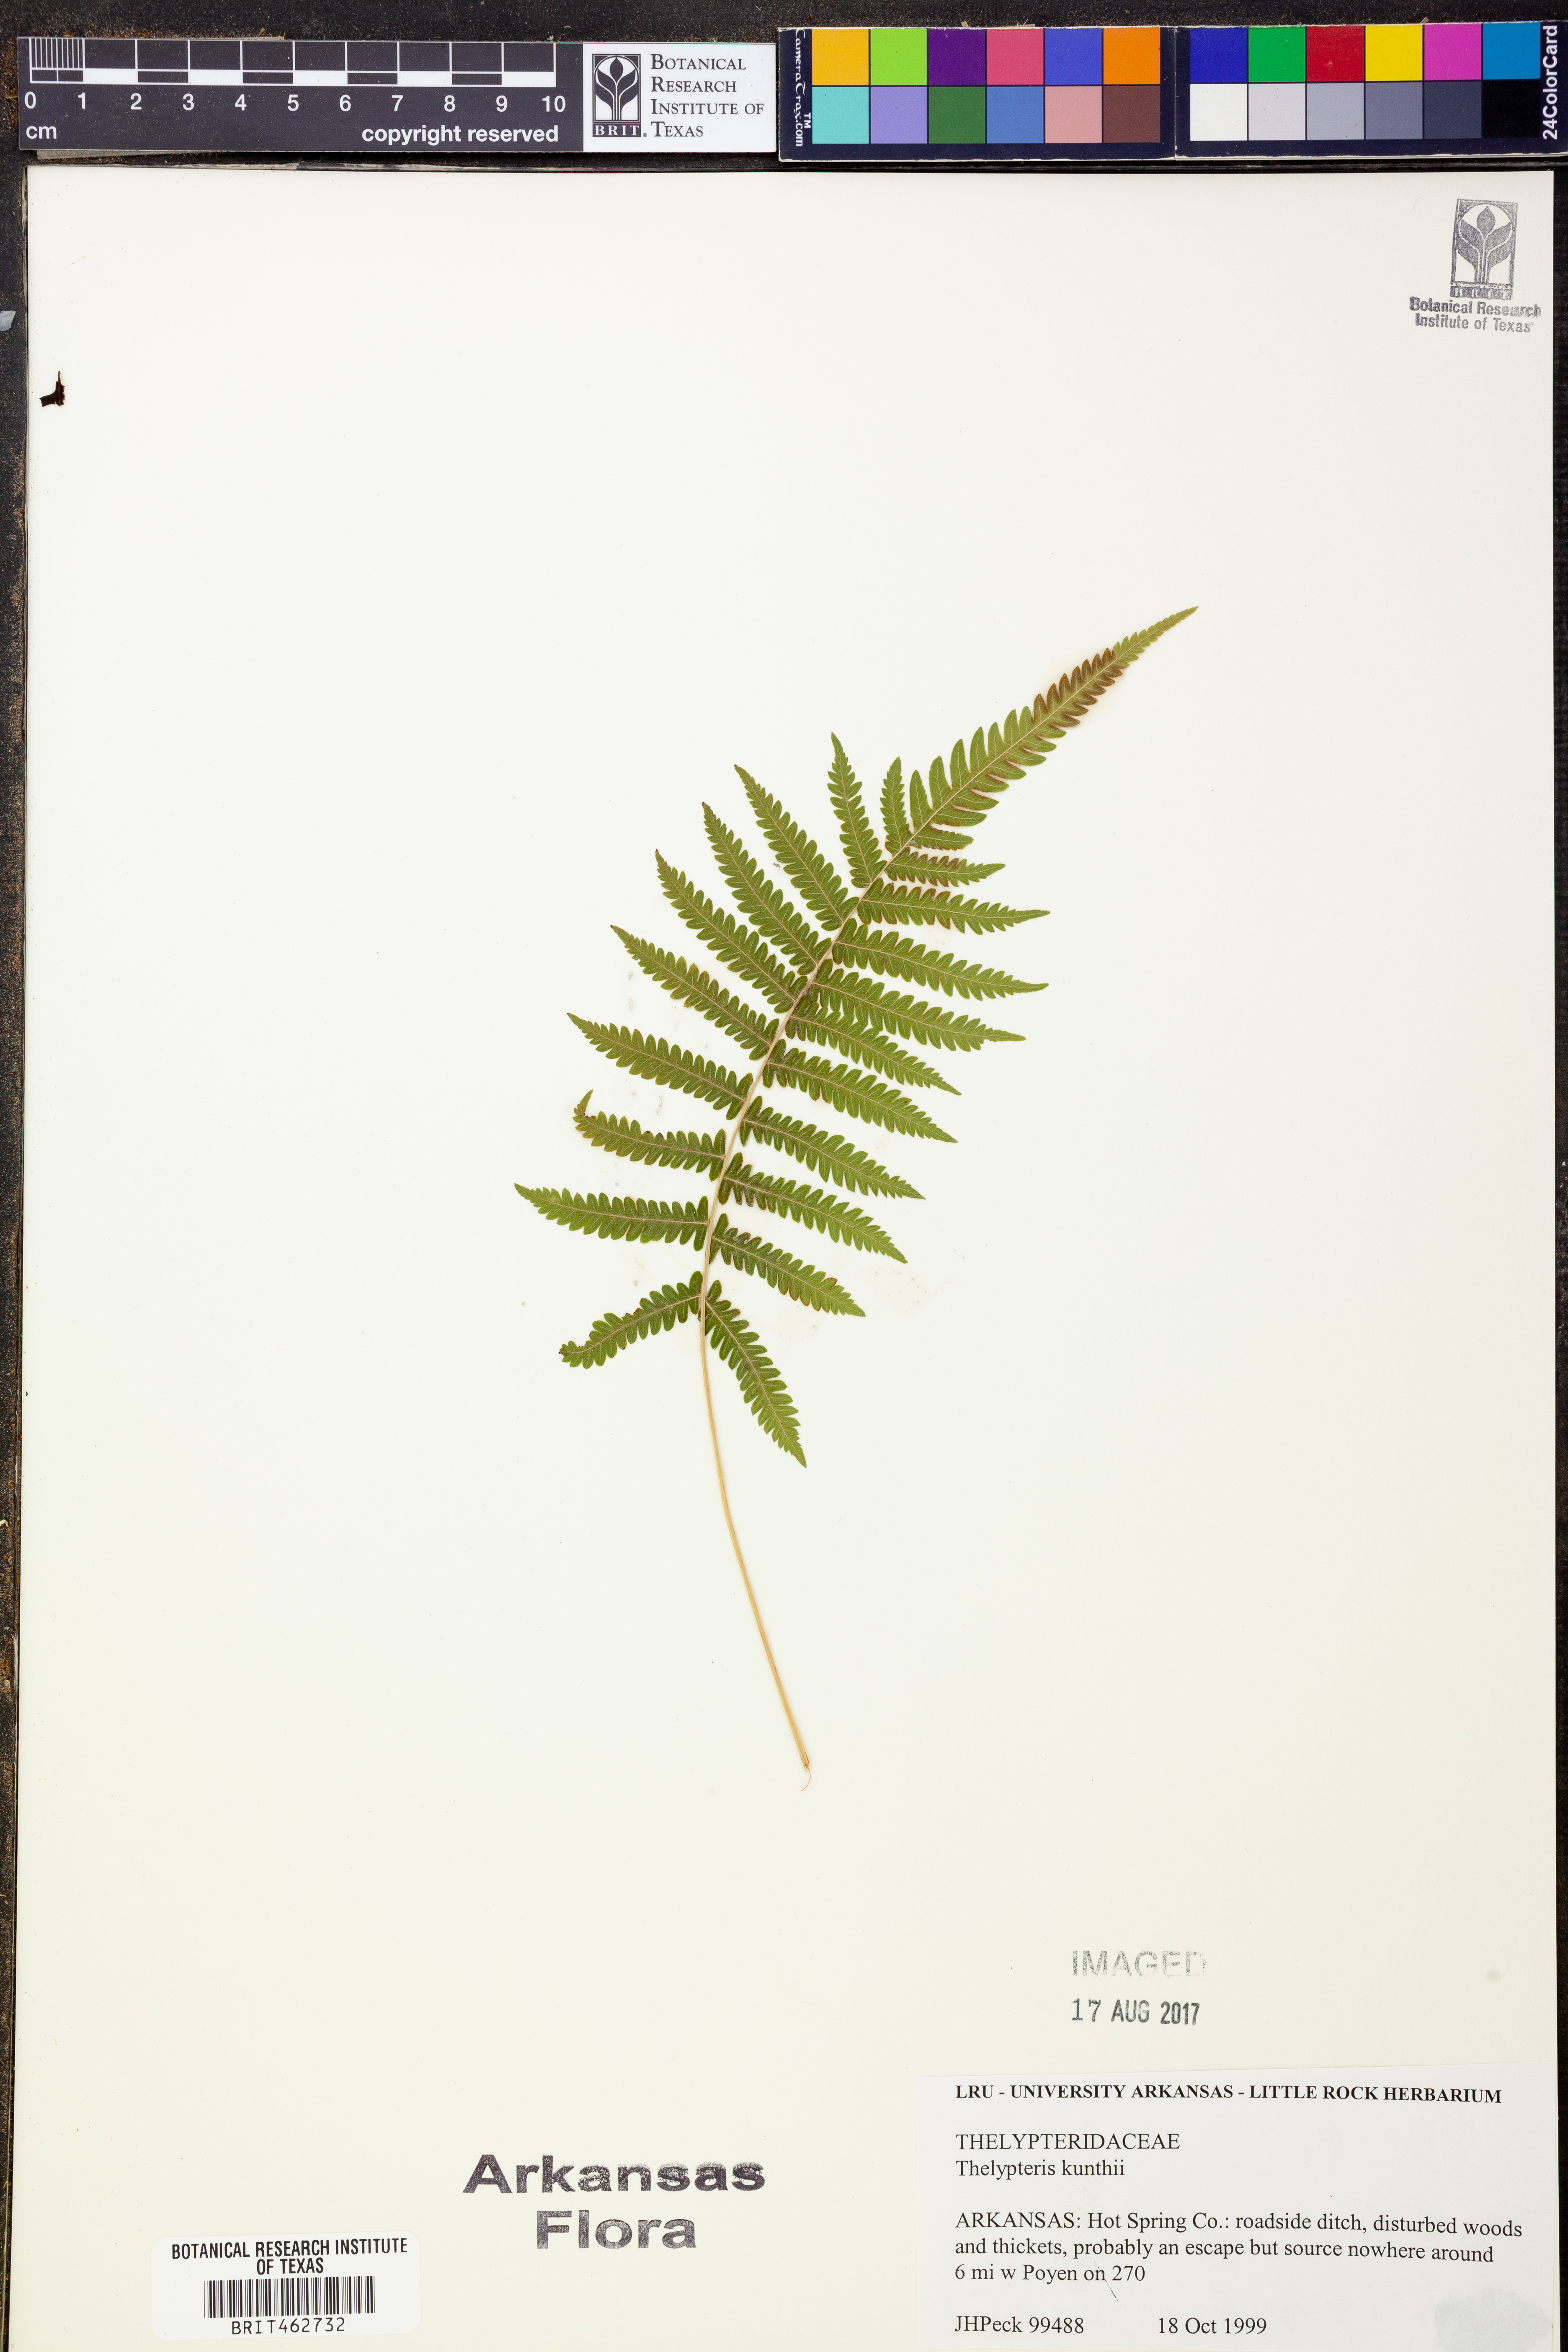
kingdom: Plantae
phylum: Tracheophyta
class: Polypodiopsida
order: Polypodiales
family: Thelypteridaceae
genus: Pelazoneuron
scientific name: Pelazoneuron kunthii
